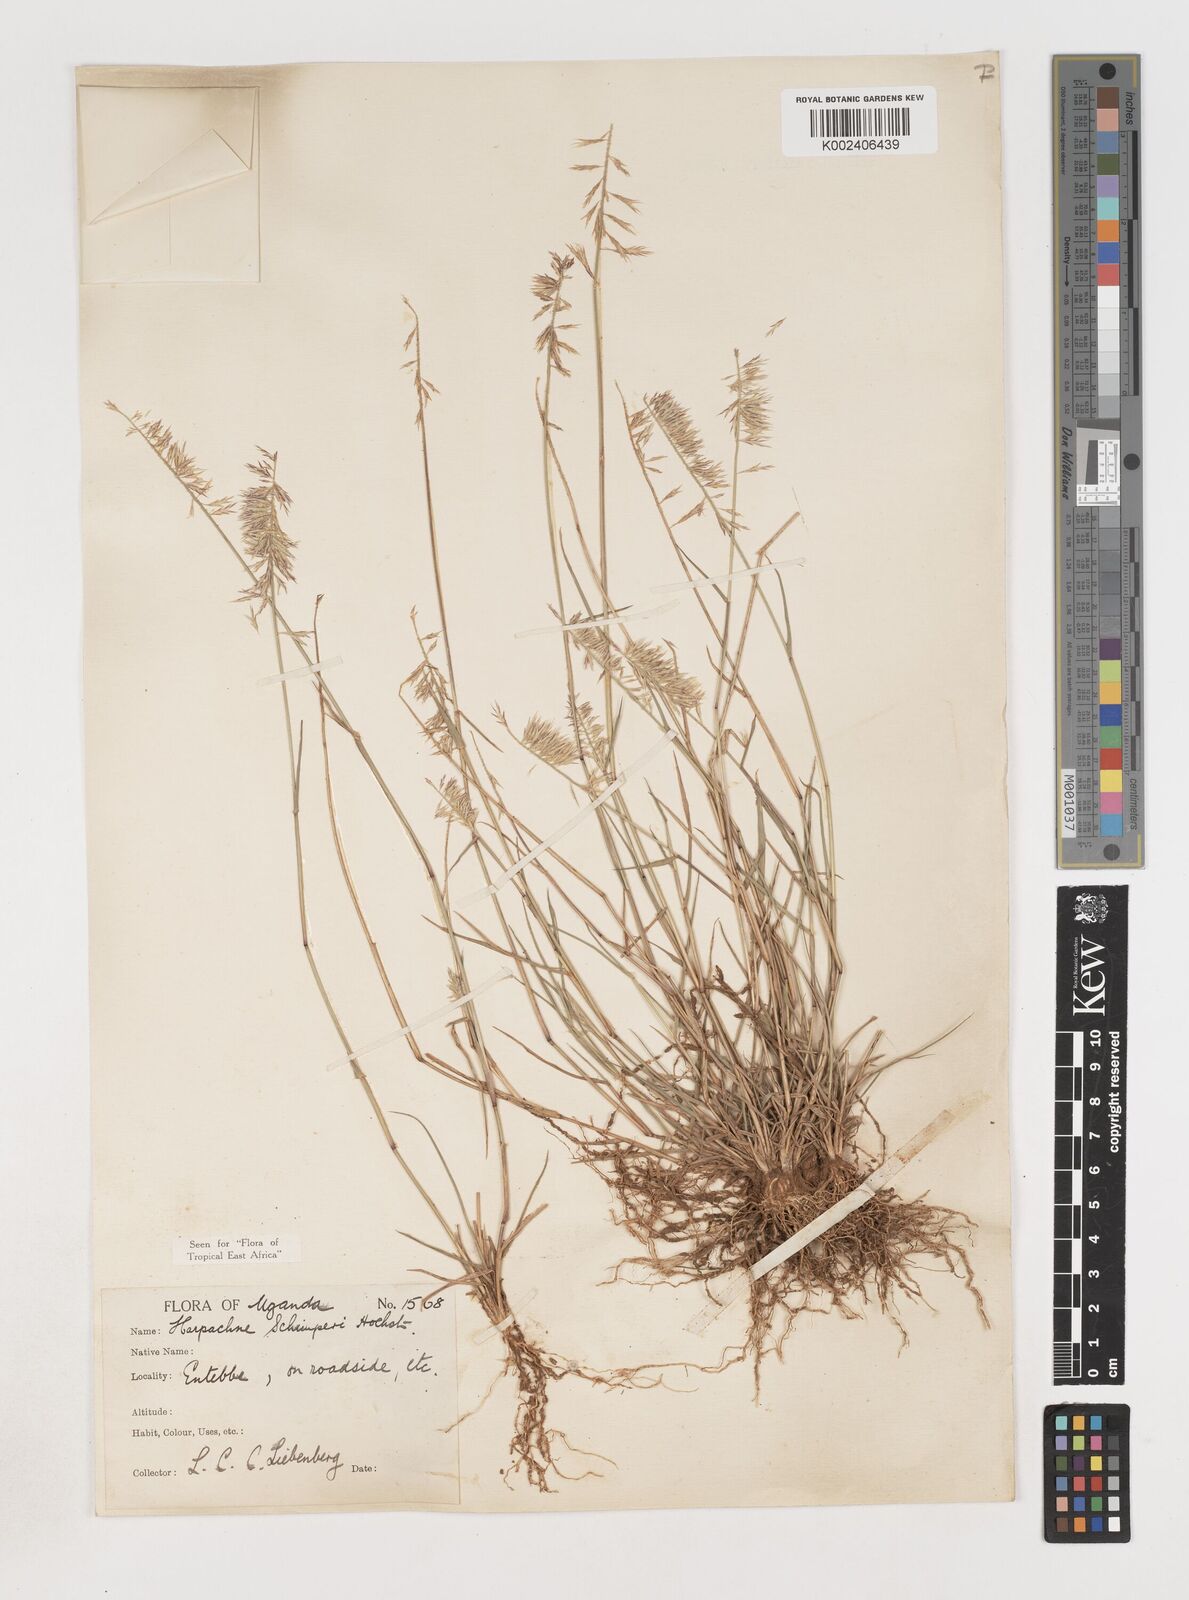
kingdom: Plantae
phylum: Tracheophyta
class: Liliopsida
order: Poales
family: Poaceae
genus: Harpachne
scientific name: Harpachne schimperi
